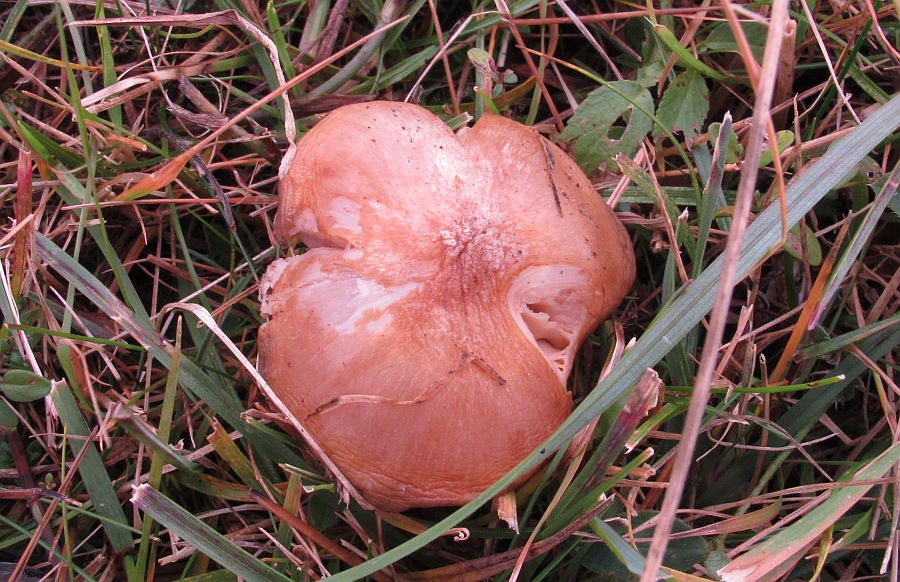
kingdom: Fungi
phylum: Basidiomycota
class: Agaricomycetes
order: Agaricales
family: Entolomataceae
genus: Entoloma
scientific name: Entoloma prunuloides
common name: mel-rødblad
